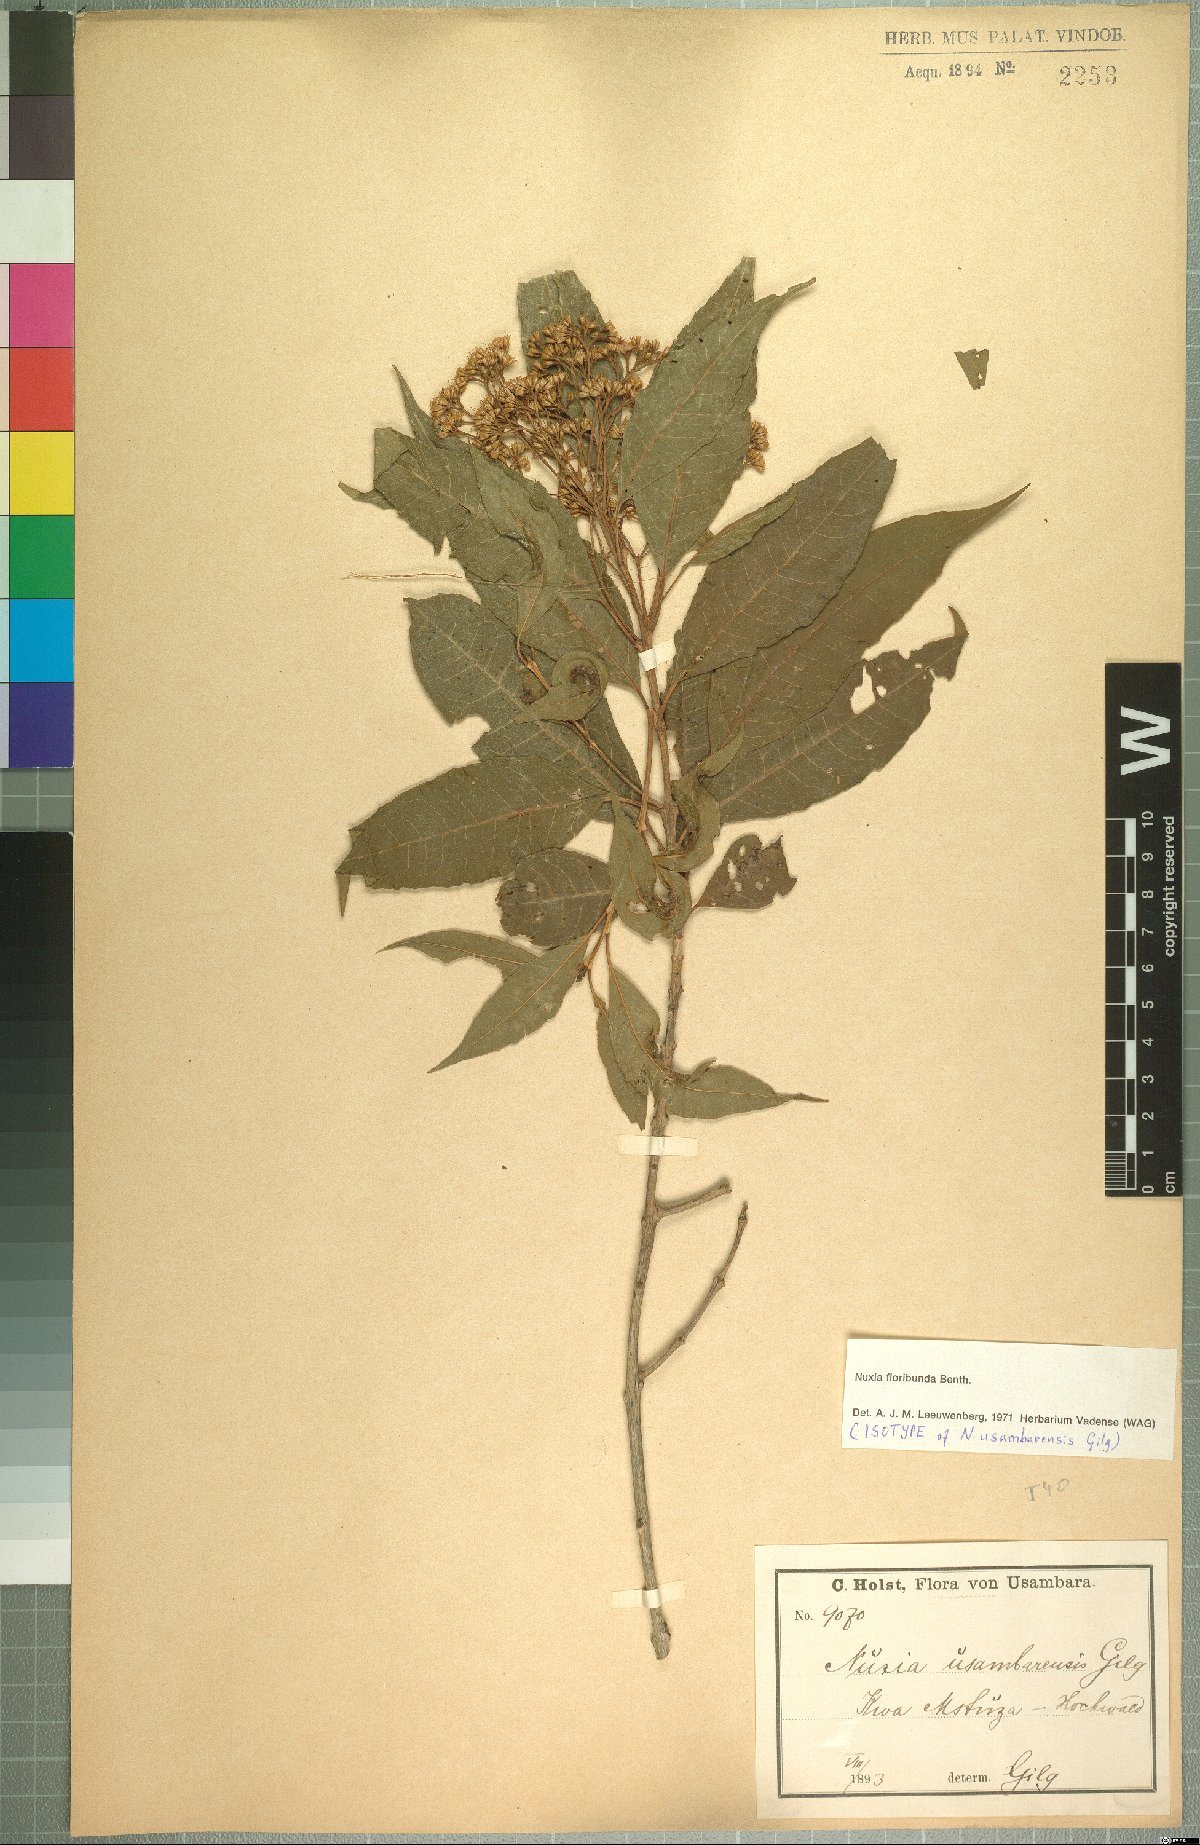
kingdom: Plantae
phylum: Tracheophyta
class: Magnoliopsida
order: Lamiales
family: Stilbaceae
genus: Nuxia
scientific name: Nuxia floribunda
